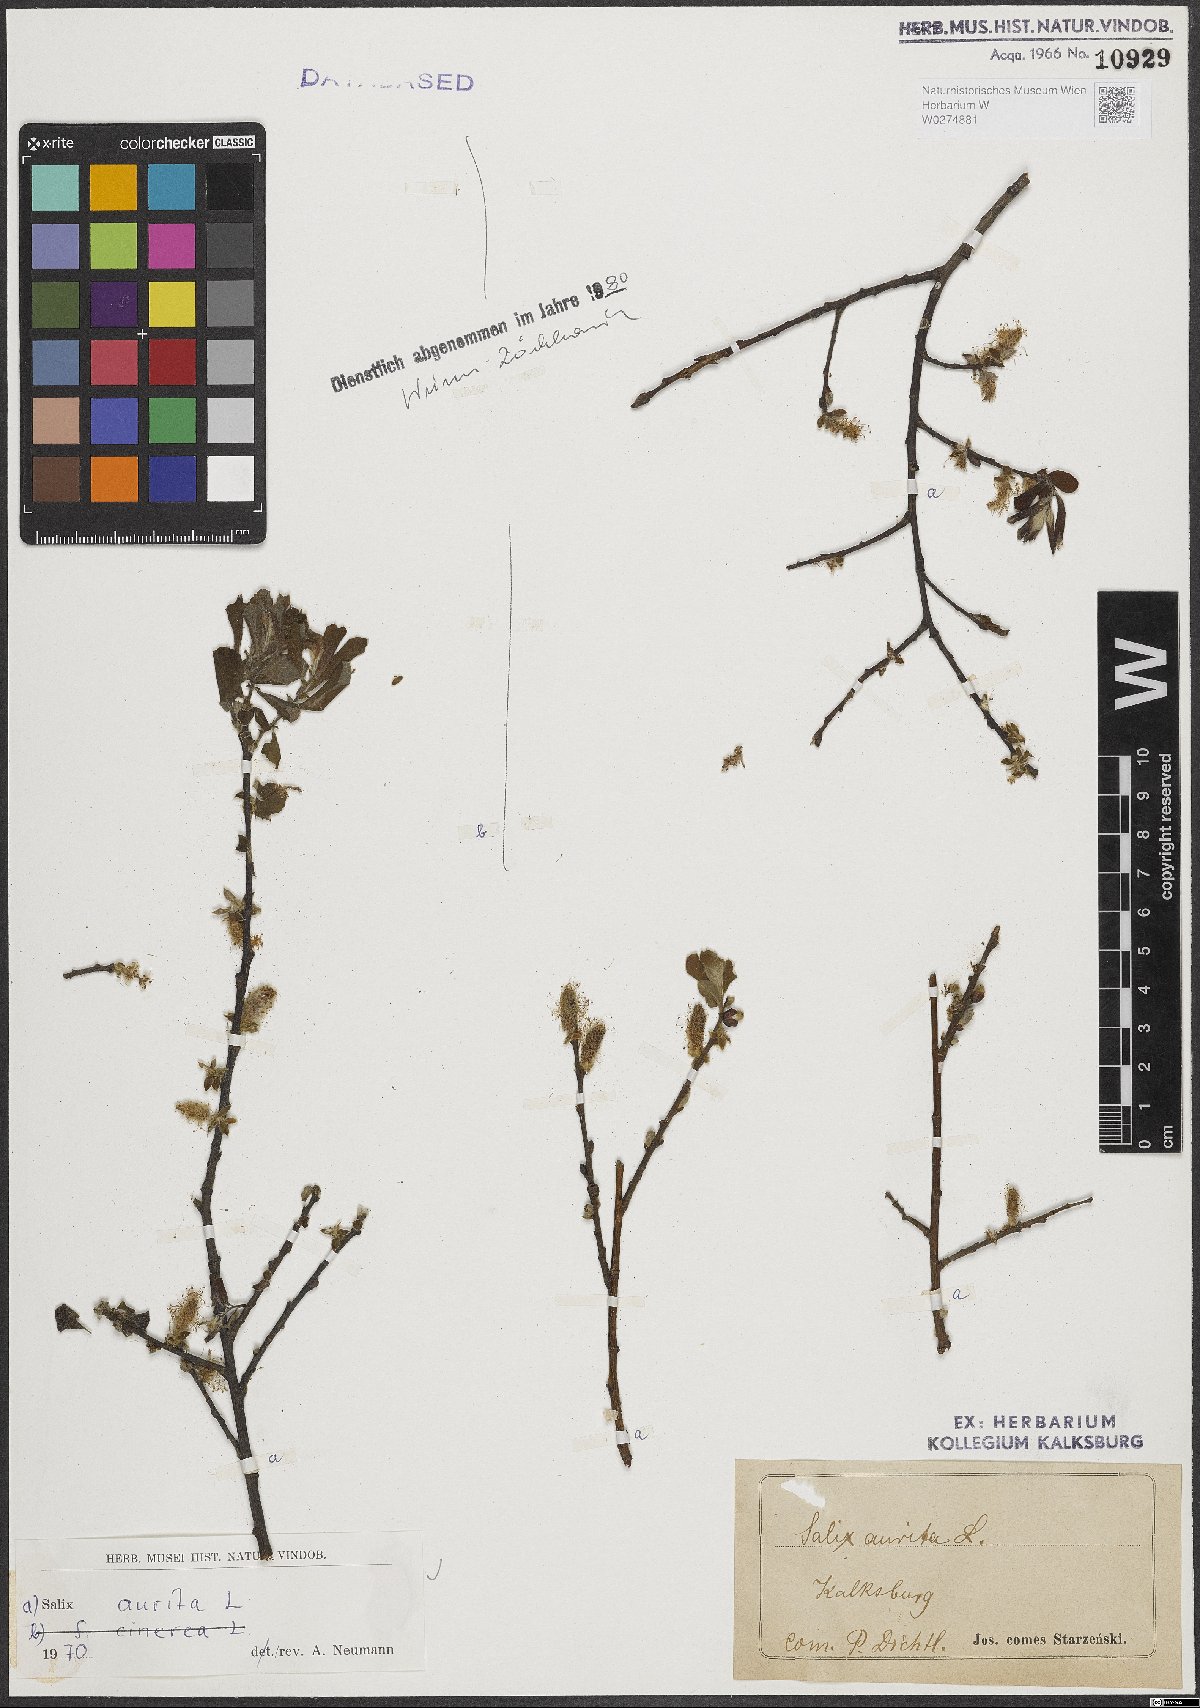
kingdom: Plantae
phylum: Tracheophyta
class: Magnoliopsida
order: Malpighiales
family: Salicaceae
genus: Salix
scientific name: Salix aurita
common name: Eared willow
